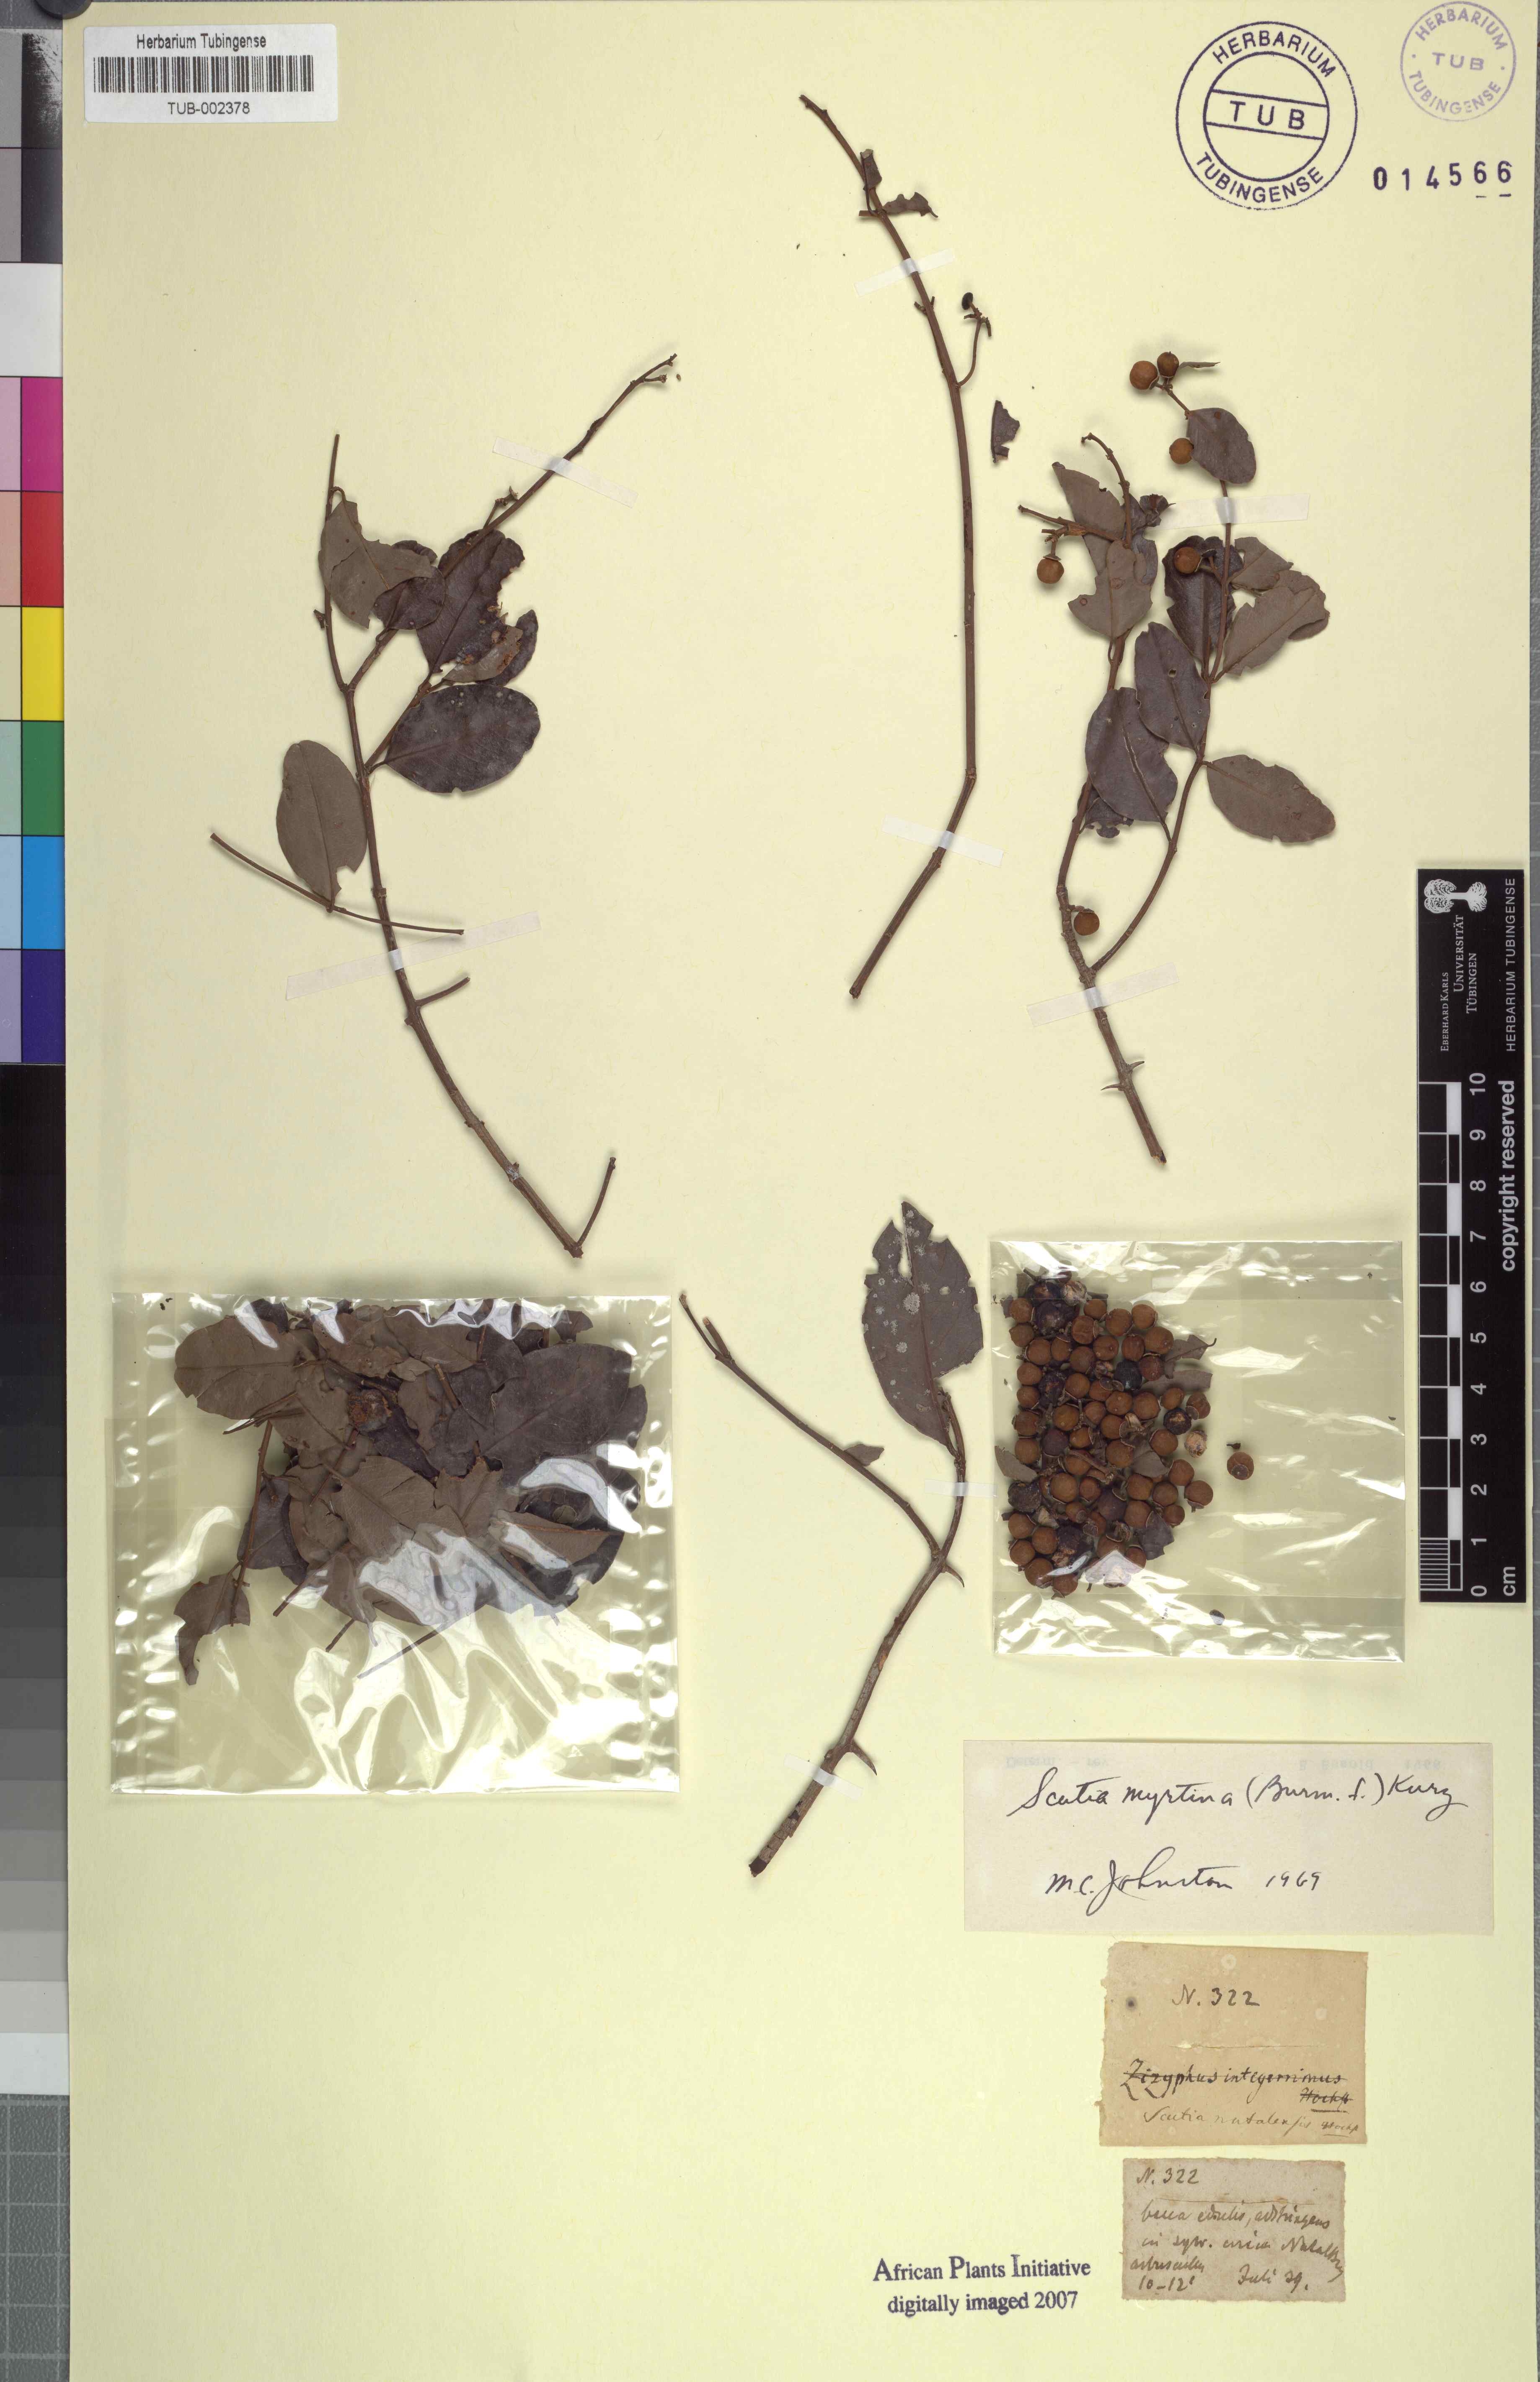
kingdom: Plantae
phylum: Tracheophyta
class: Magnoliopsida
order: Rosales
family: Rhamnaceae
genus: Scutia
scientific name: Scutia myrtina
